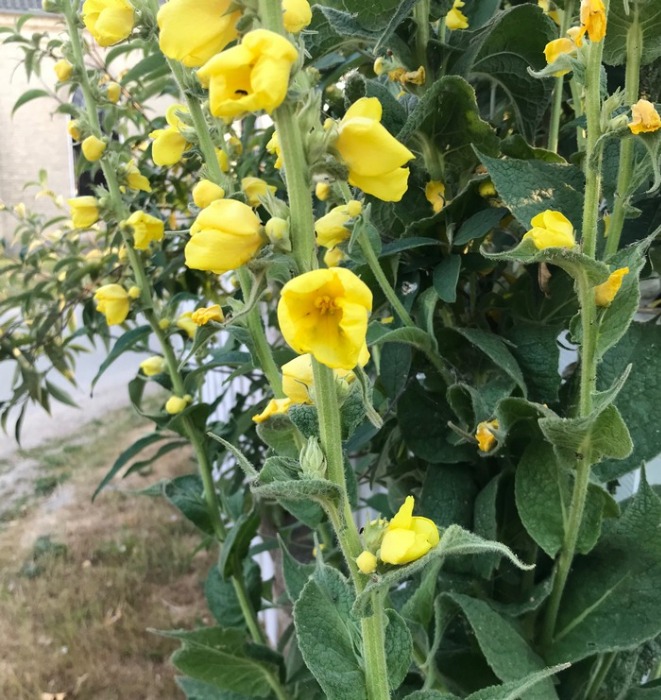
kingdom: Plantae
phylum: Tracheophyta
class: Magnoliopsida
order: Lamiales
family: Scrophulariaceae
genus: Verbascum
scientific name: Verbascum phlomoides
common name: Hjertebladet kongelys
